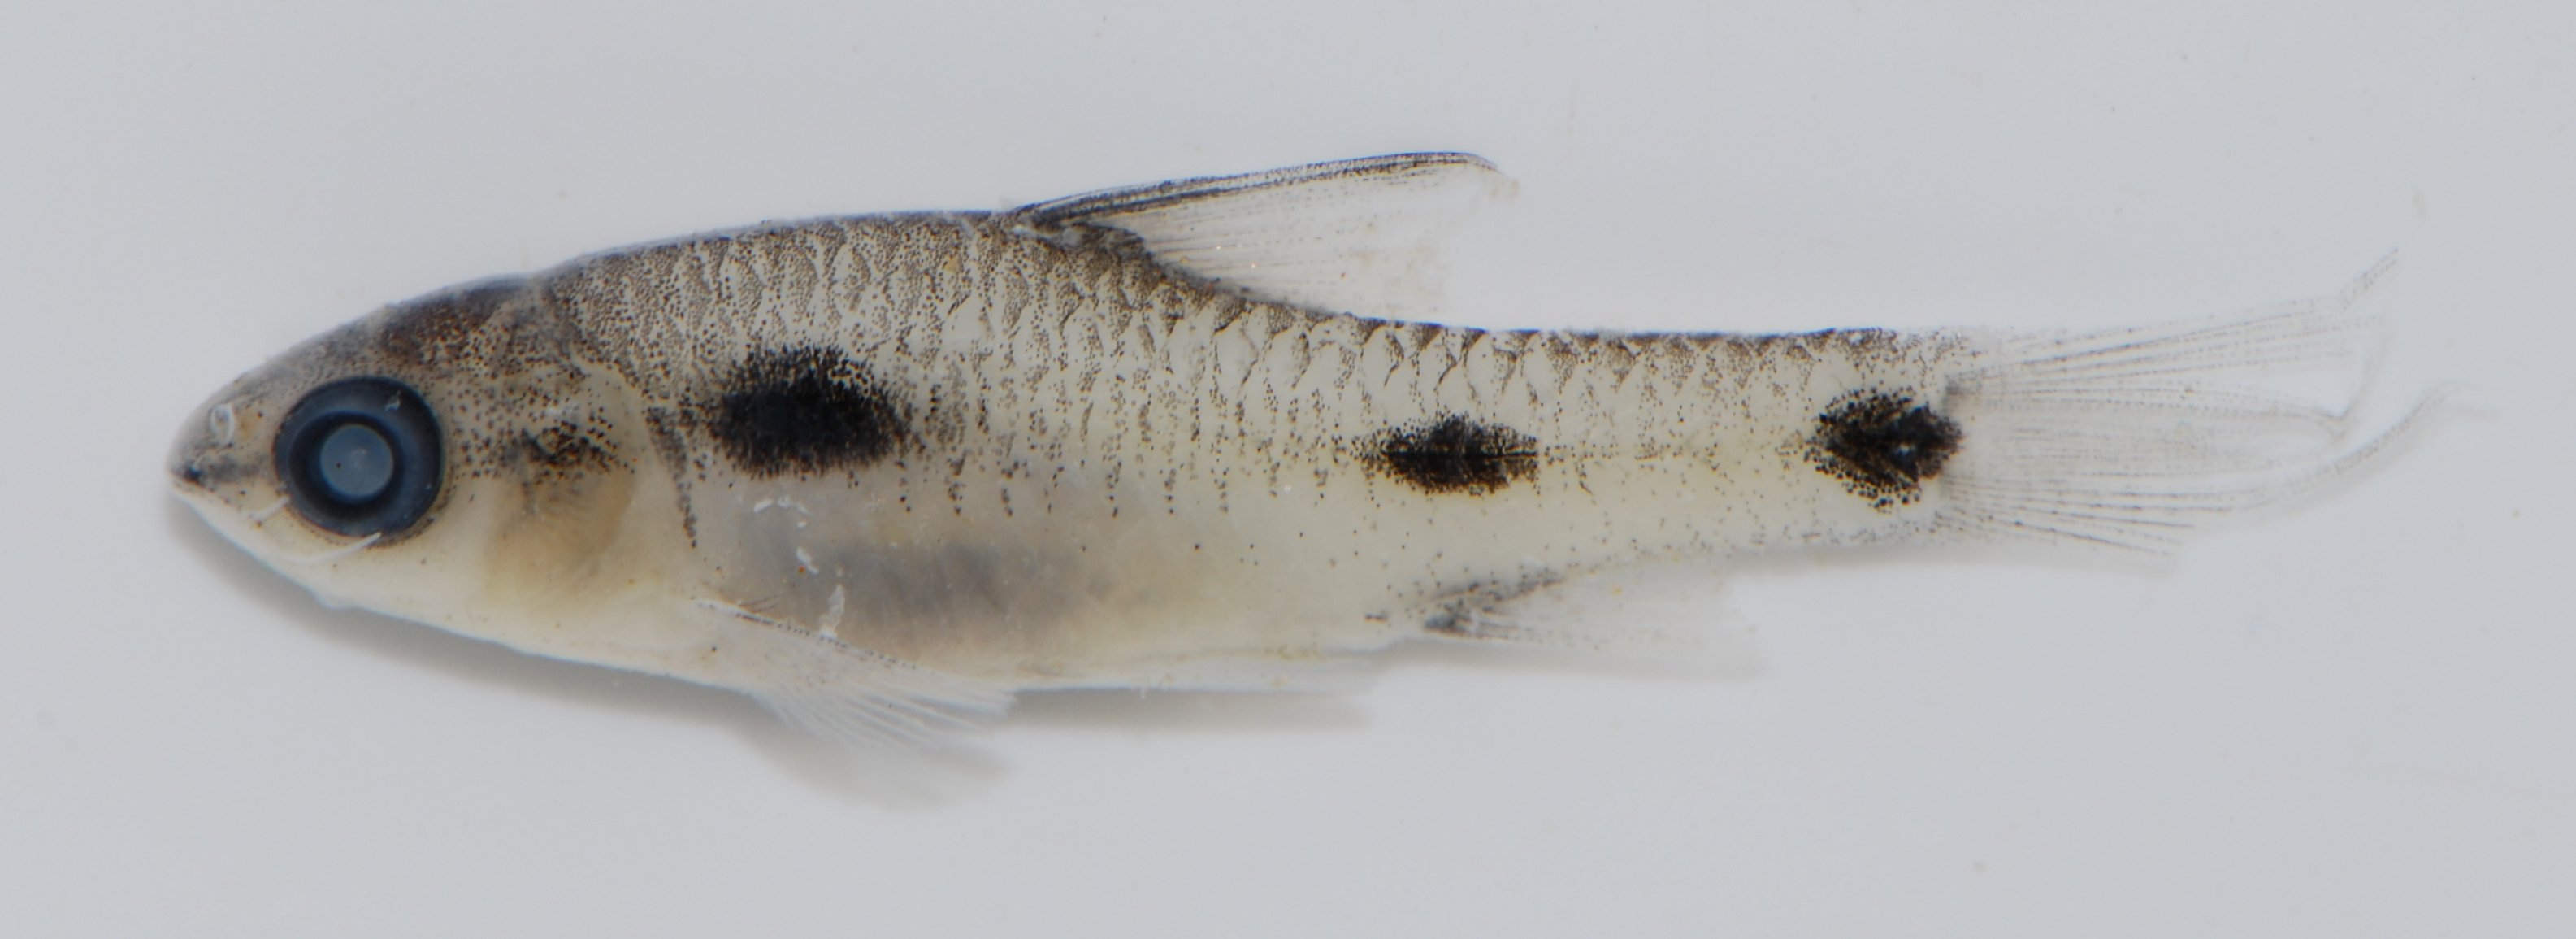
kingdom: Animalia
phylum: Chordata
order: Cypriniformes
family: Cyprinidae
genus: Enteromius
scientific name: Enteromius trispilomimus
